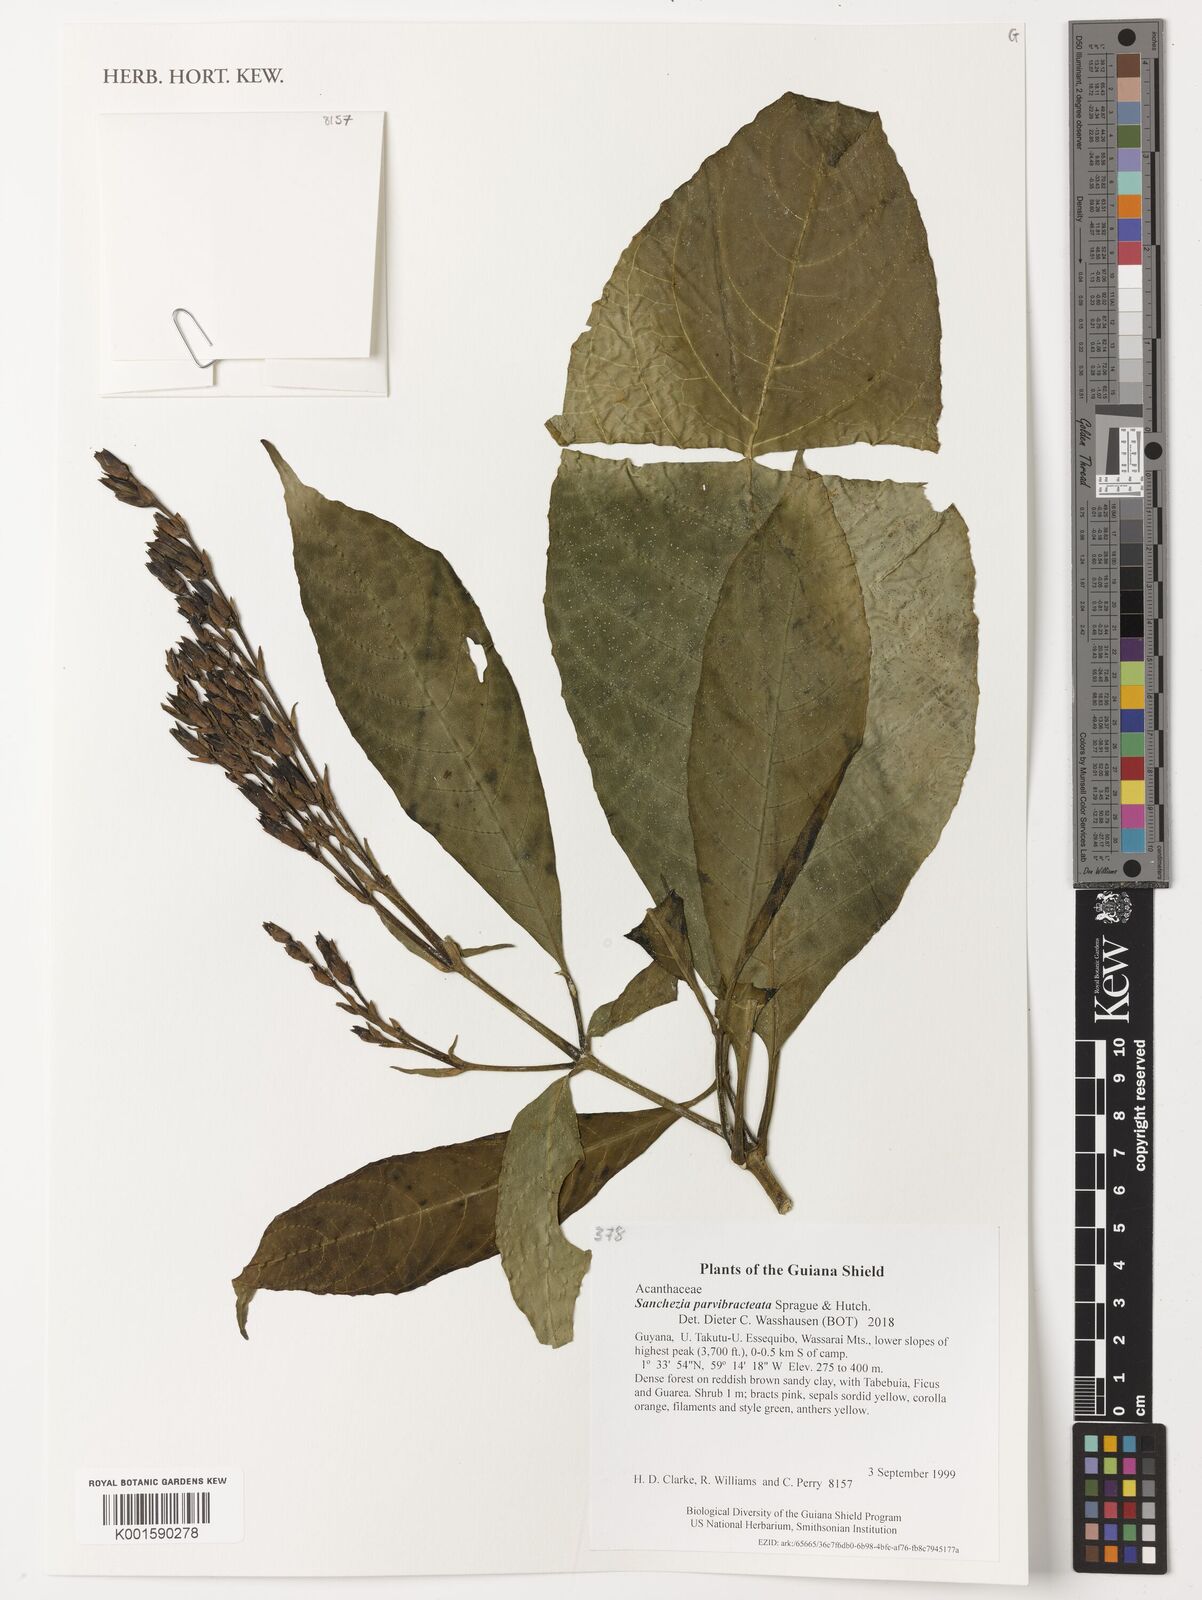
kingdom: Plantae
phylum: Tracheophyta
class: Magnoliopsida
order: Lamiales
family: Acanthaceae
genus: Sanchezia
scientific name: Sanchezia parvibracteata
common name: Sanchezia
